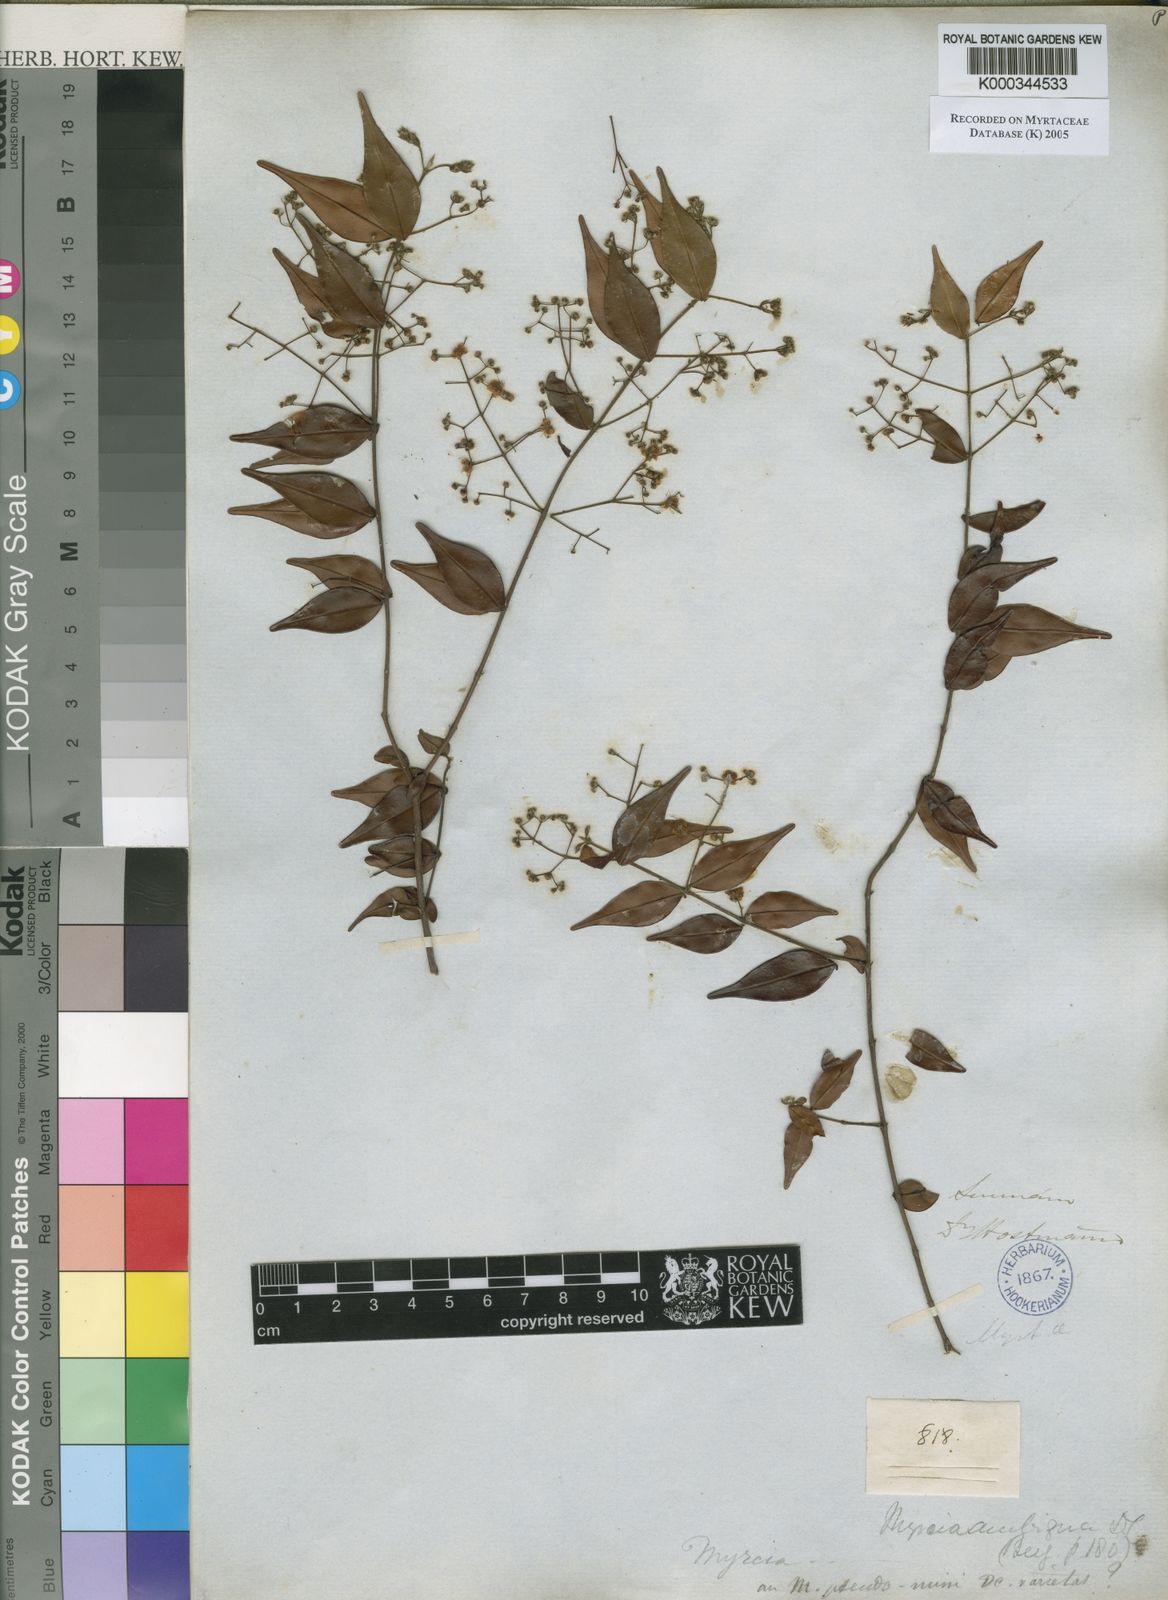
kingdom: Plantae
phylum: Tracheophyta
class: Magnoliopsida
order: Myrtales
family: Myrtaceae
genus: Myrcia
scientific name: Myrcia sylvatica
